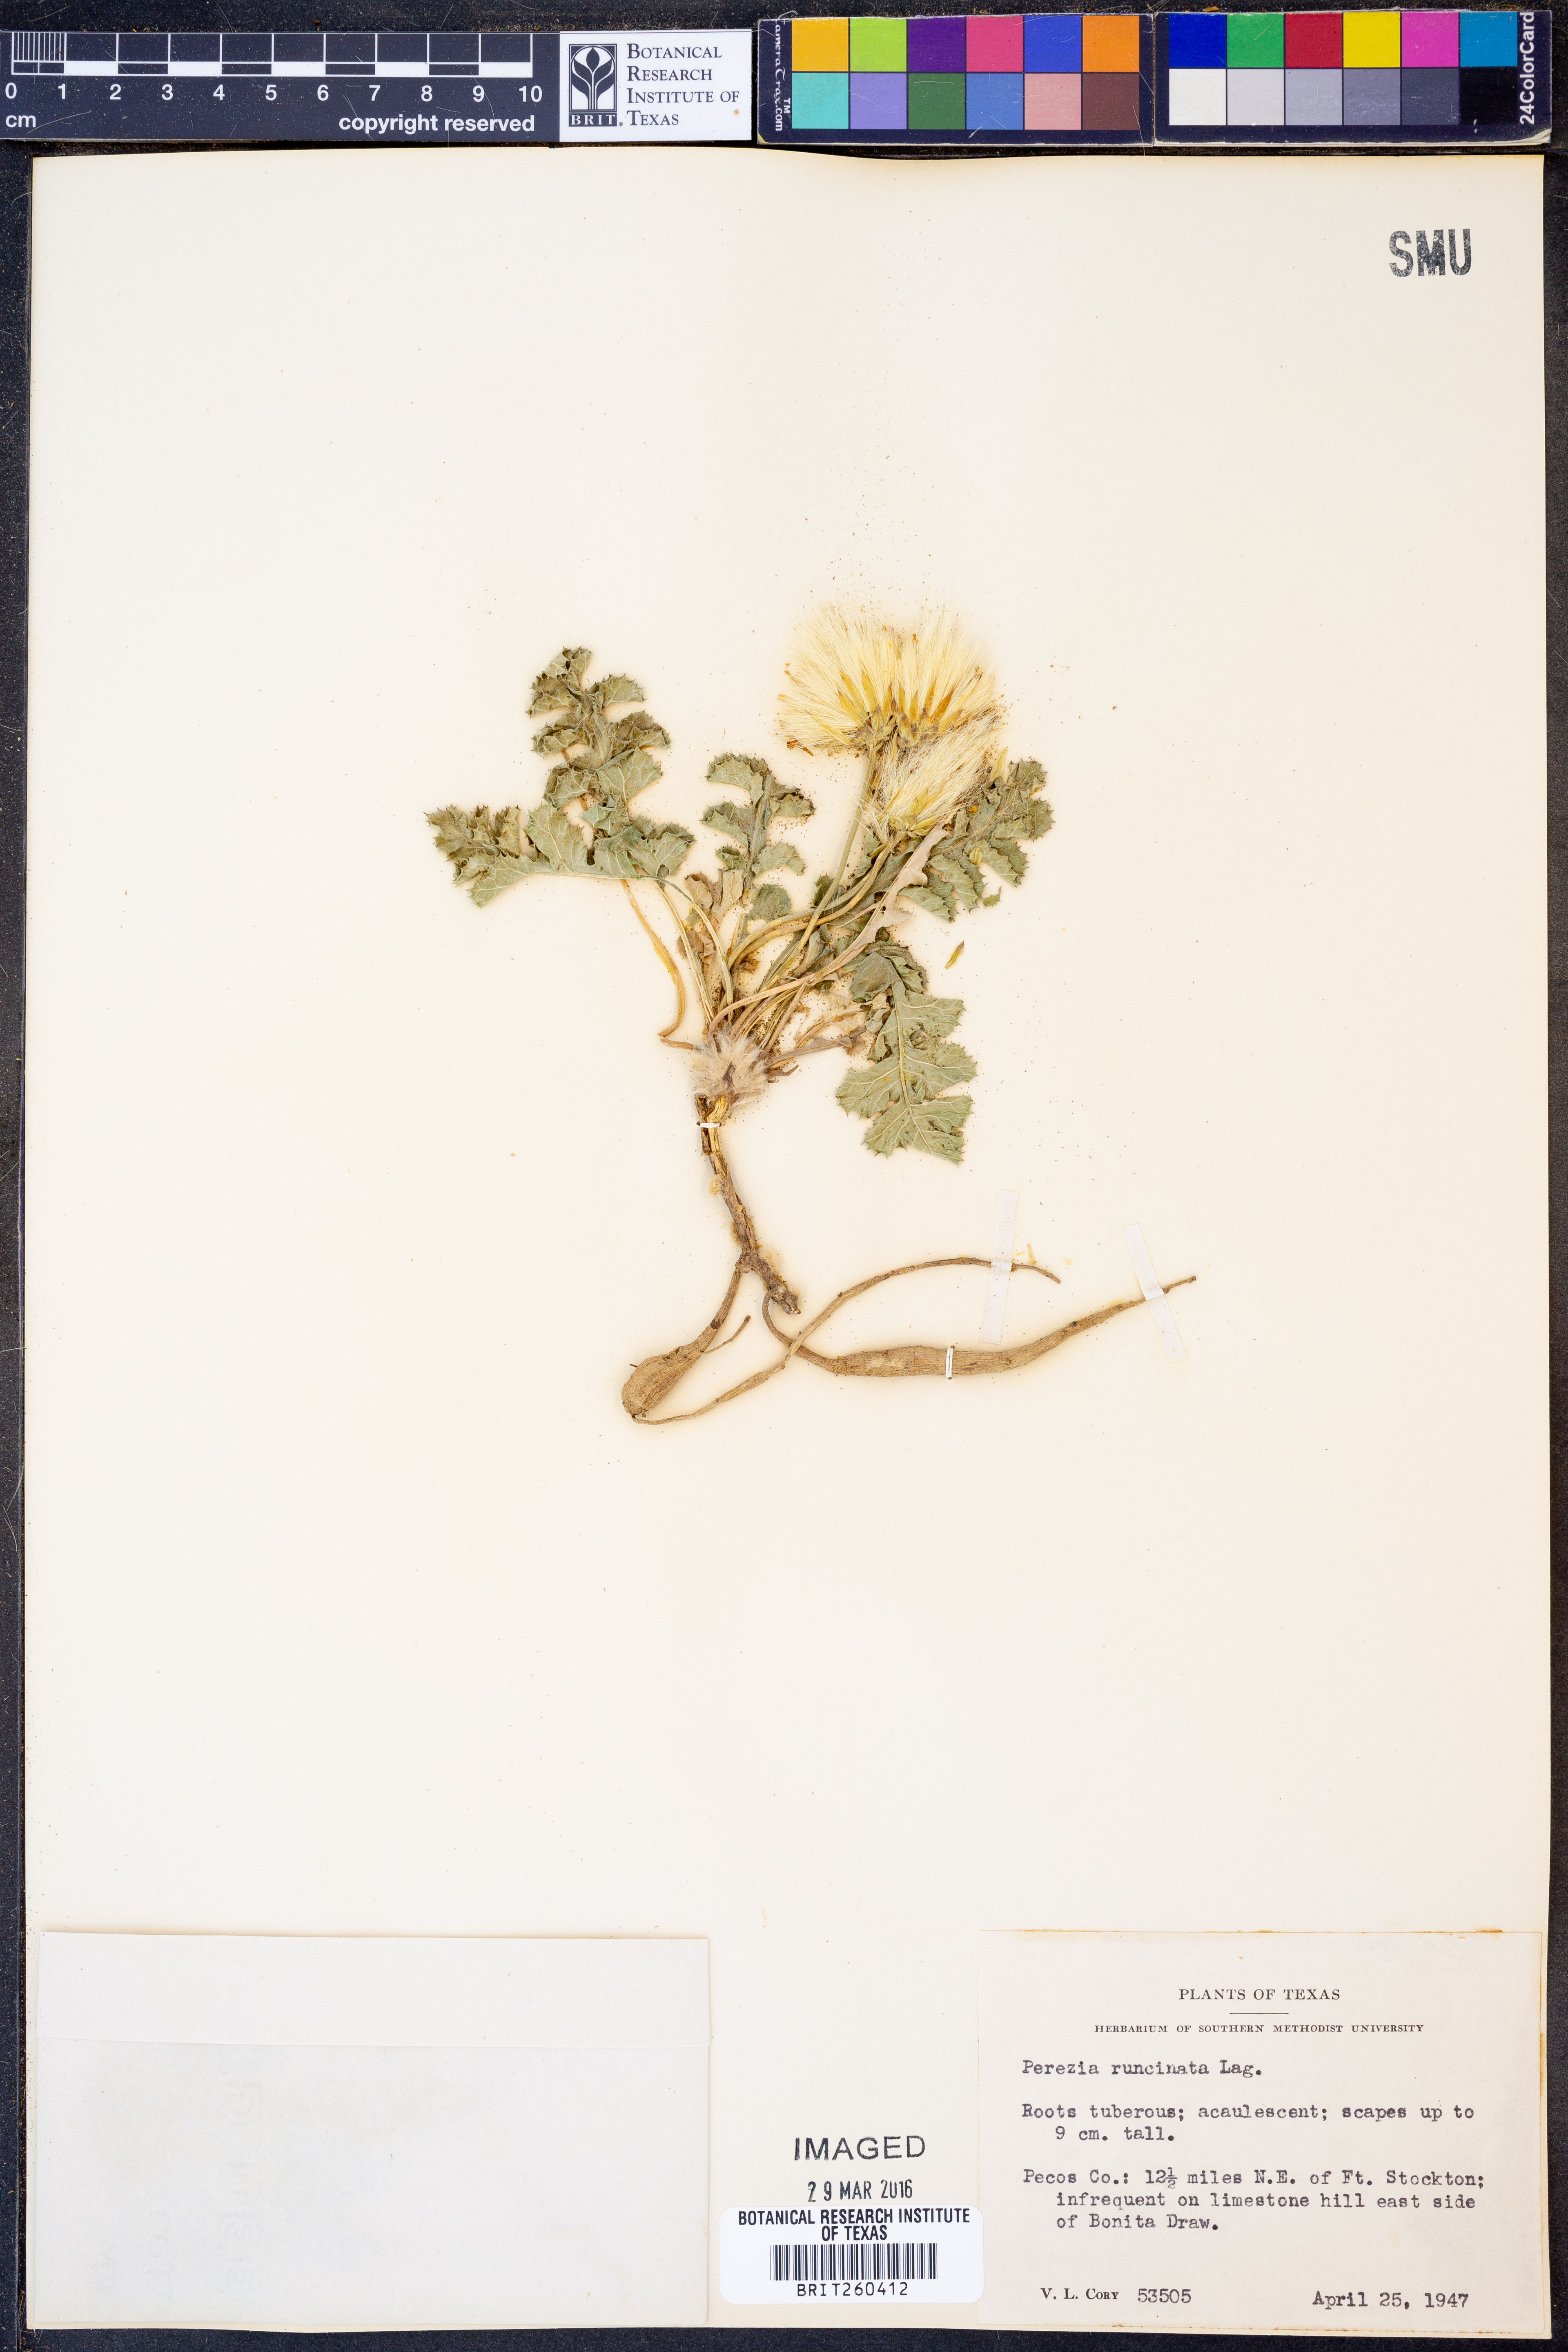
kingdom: Plantae
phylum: Tracheophyta
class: Magnoliopsida
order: Asterales
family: Asteraceae
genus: Acourtia
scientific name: Acourtia runcinata
